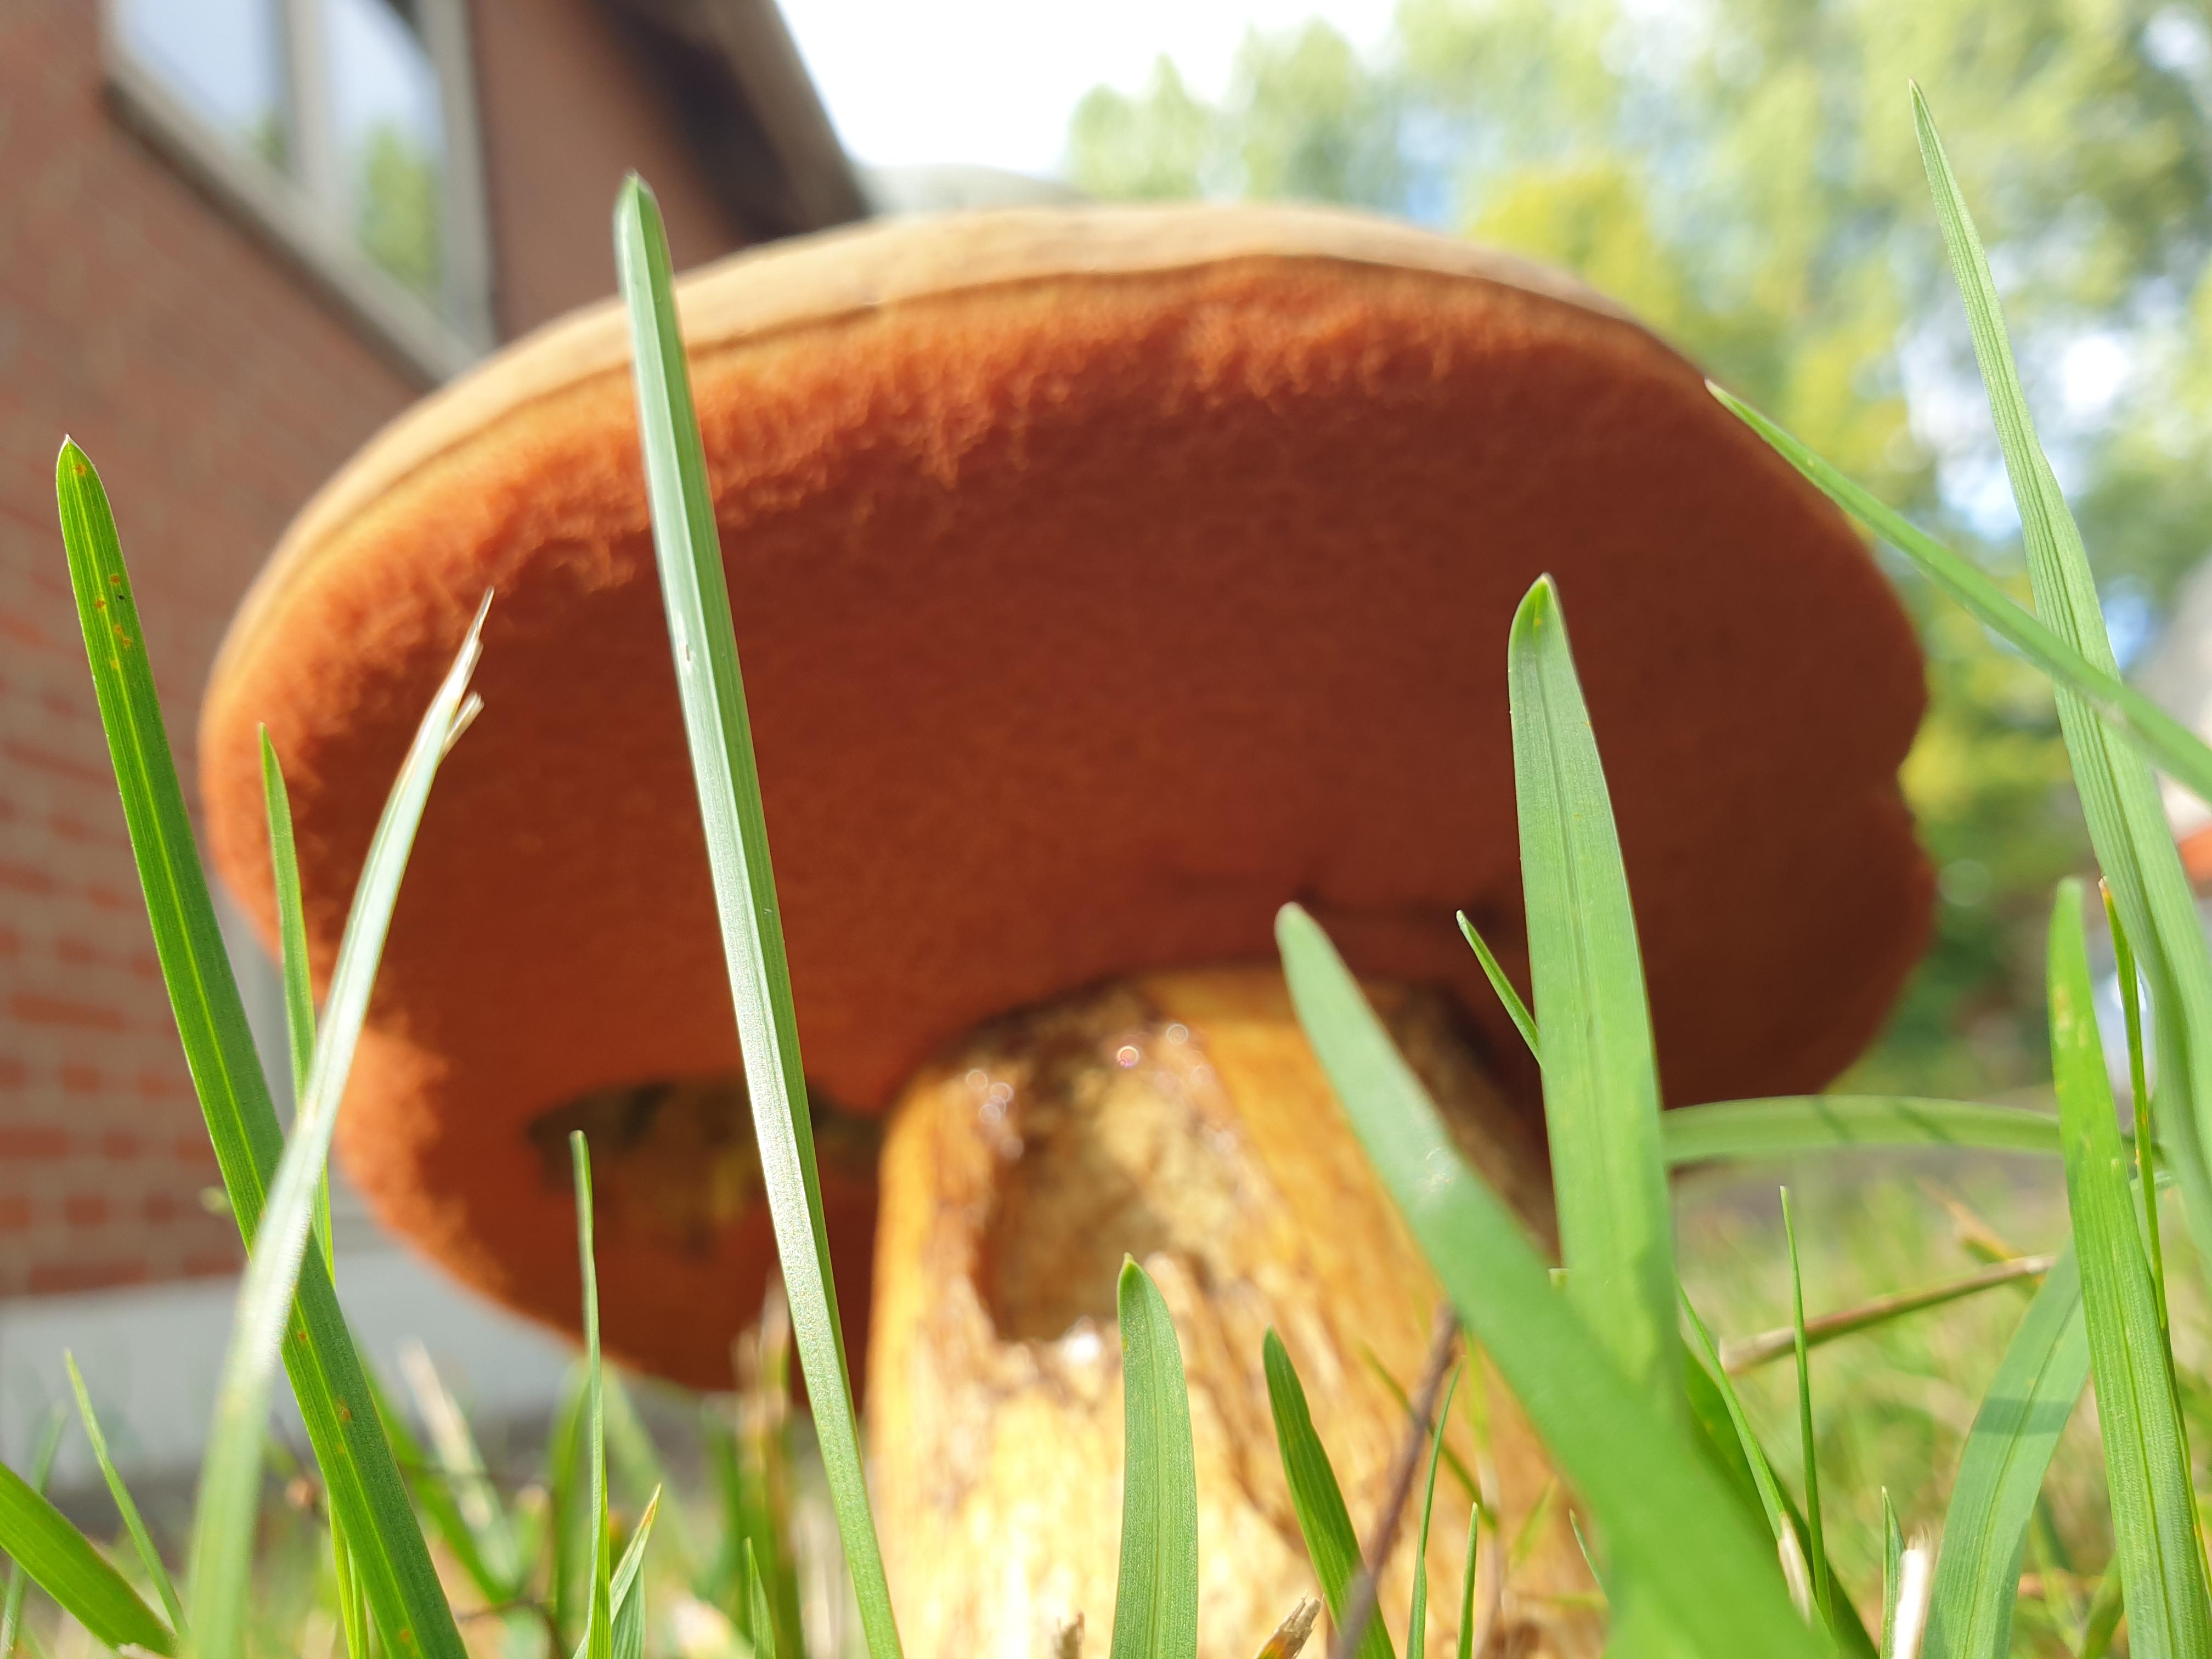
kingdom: Fungi
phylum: Basidiomycota
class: Agaricomycetes
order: Boletales
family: Boletaceae
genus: Suillellus
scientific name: Suillellus luridus
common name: netstokket indigorørhat
